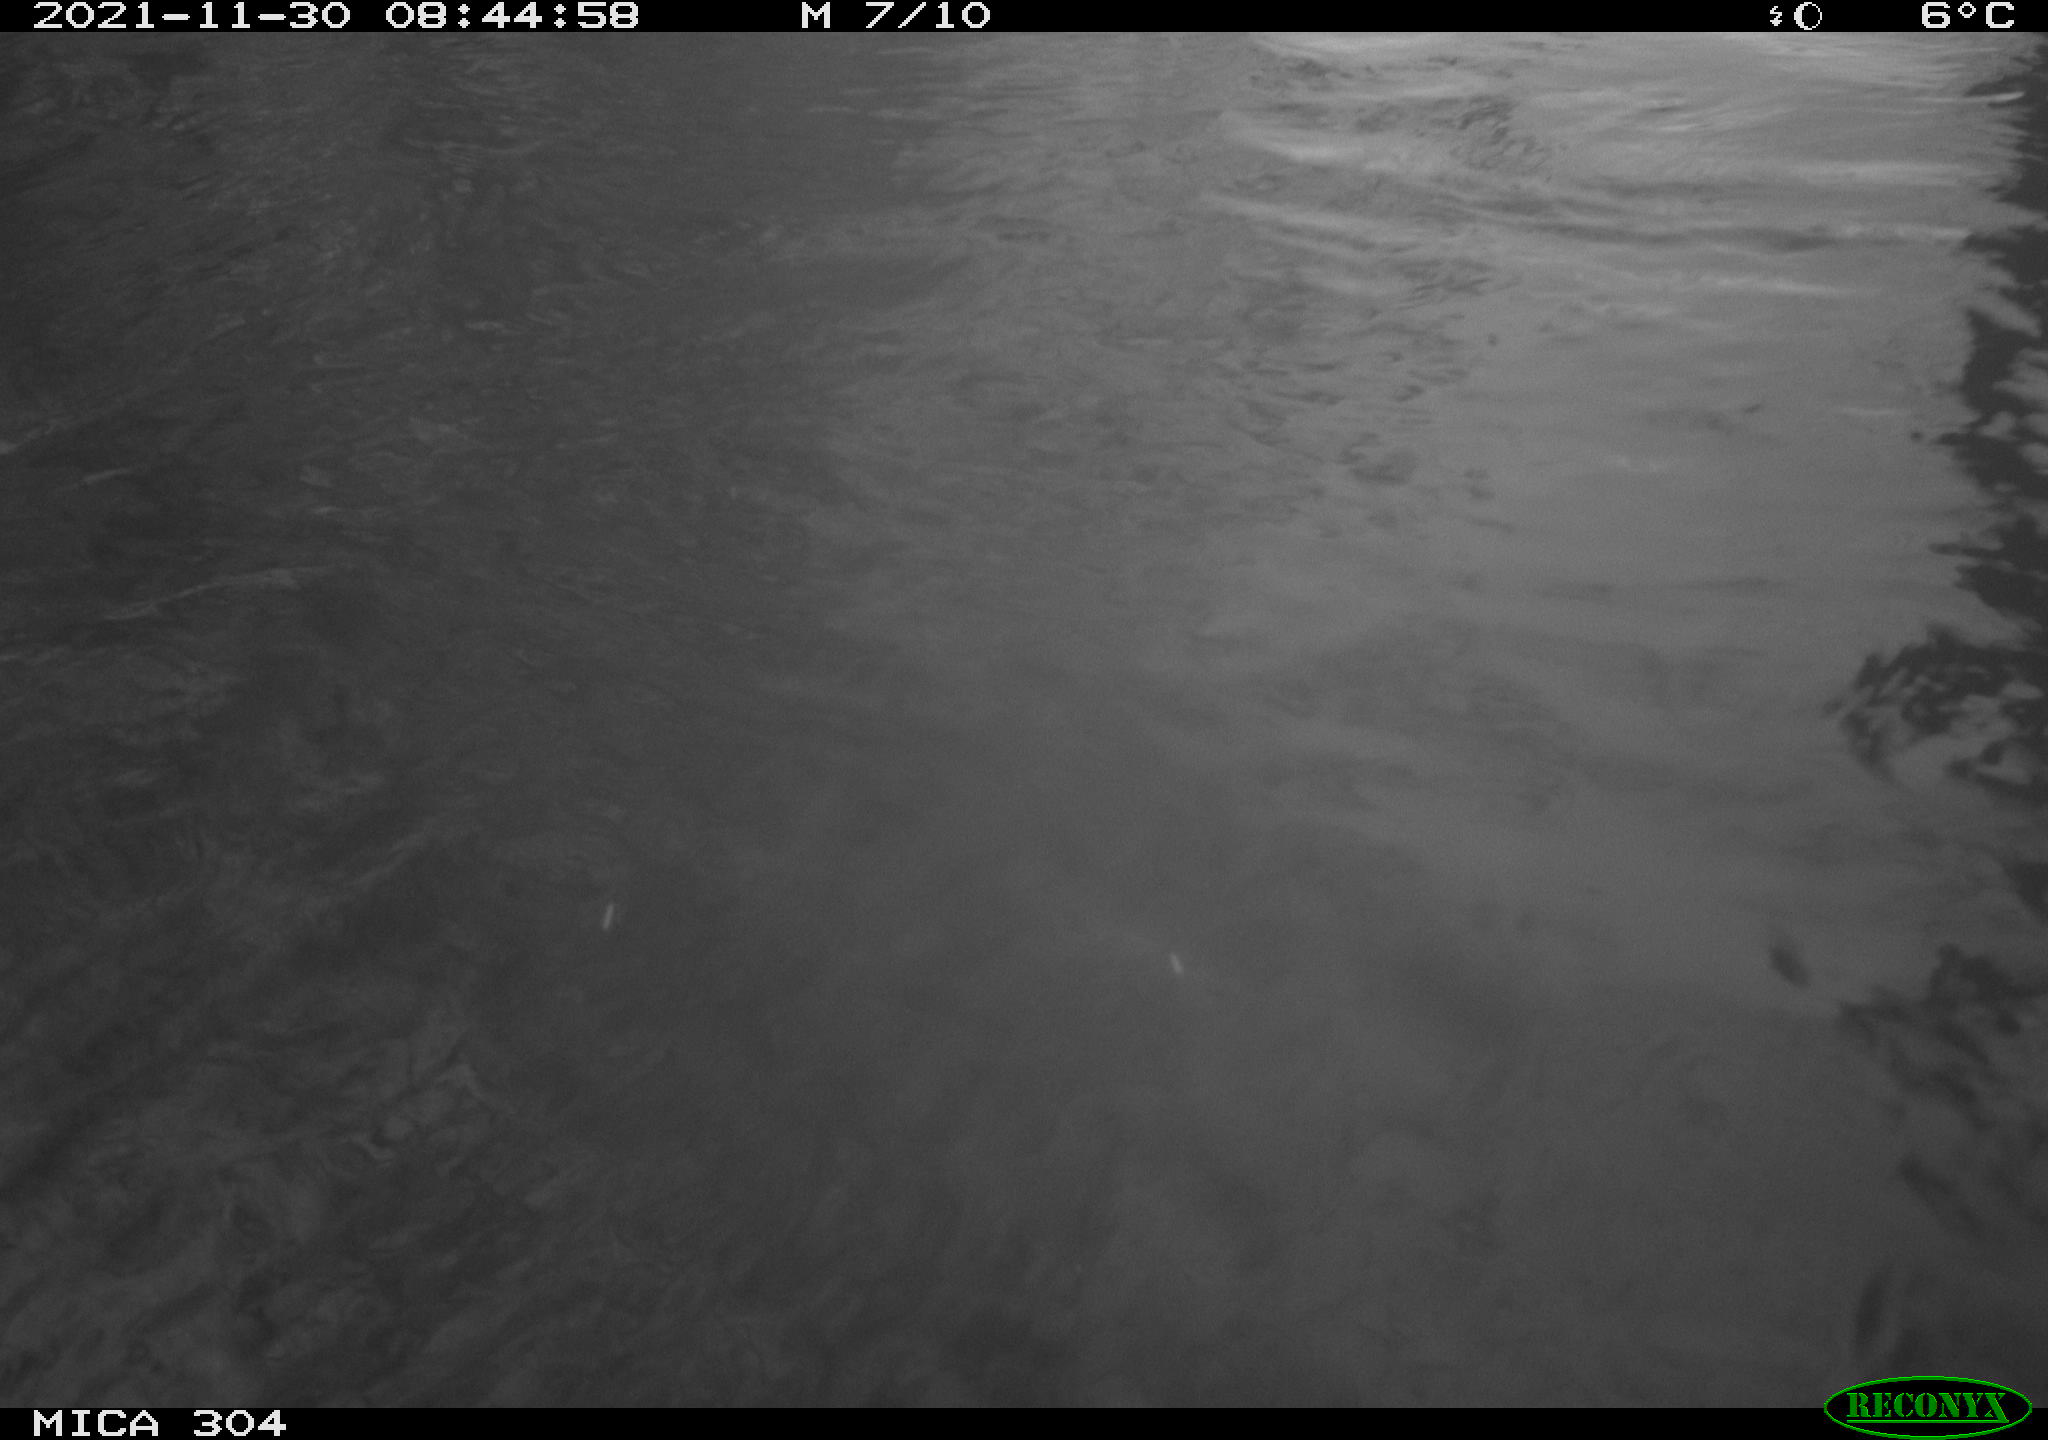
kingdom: Animalia
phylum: Chordata
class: Aves
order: Gruiformes
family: Rallidae
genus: Fulica
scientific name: Fulica atra
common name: Eurasian coot
